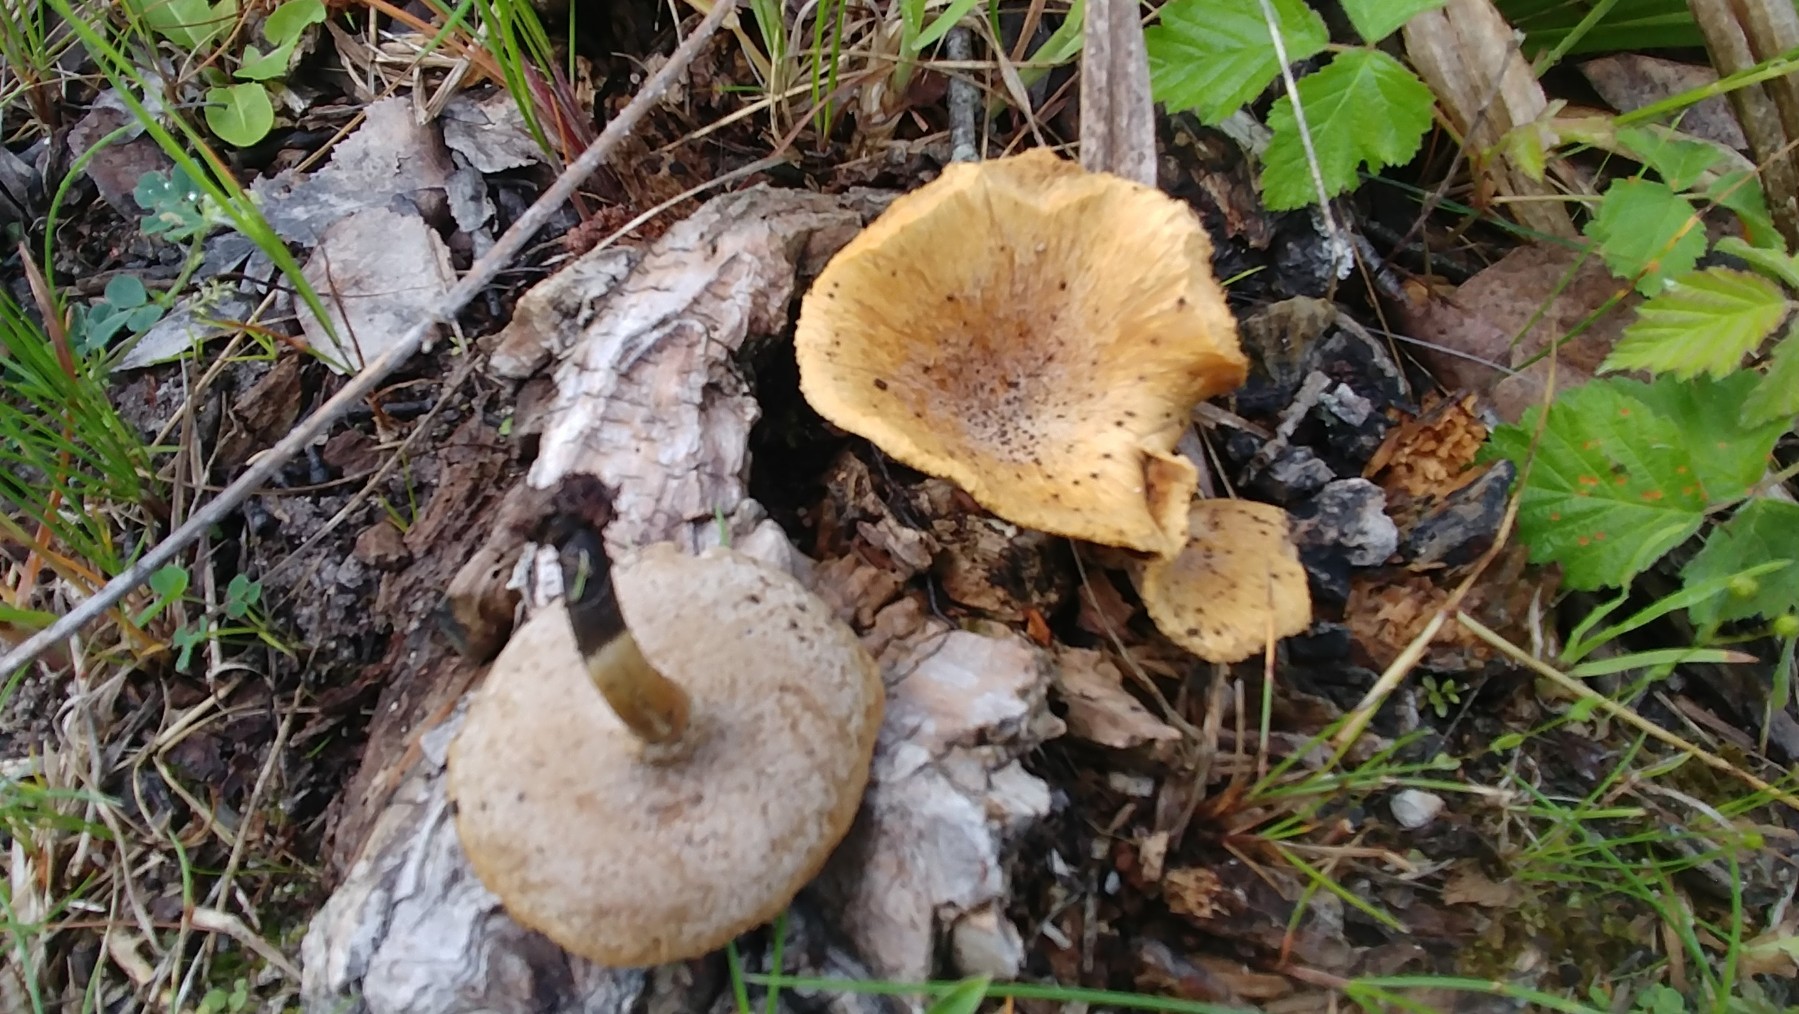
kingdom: Fungi
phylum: Basidiomycota
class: Agaricomycetes
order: Polyporales
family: Polyporaceae
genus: Cerioporus
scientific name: Cerioporus varius
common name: foranderlig stilkporesvamp
